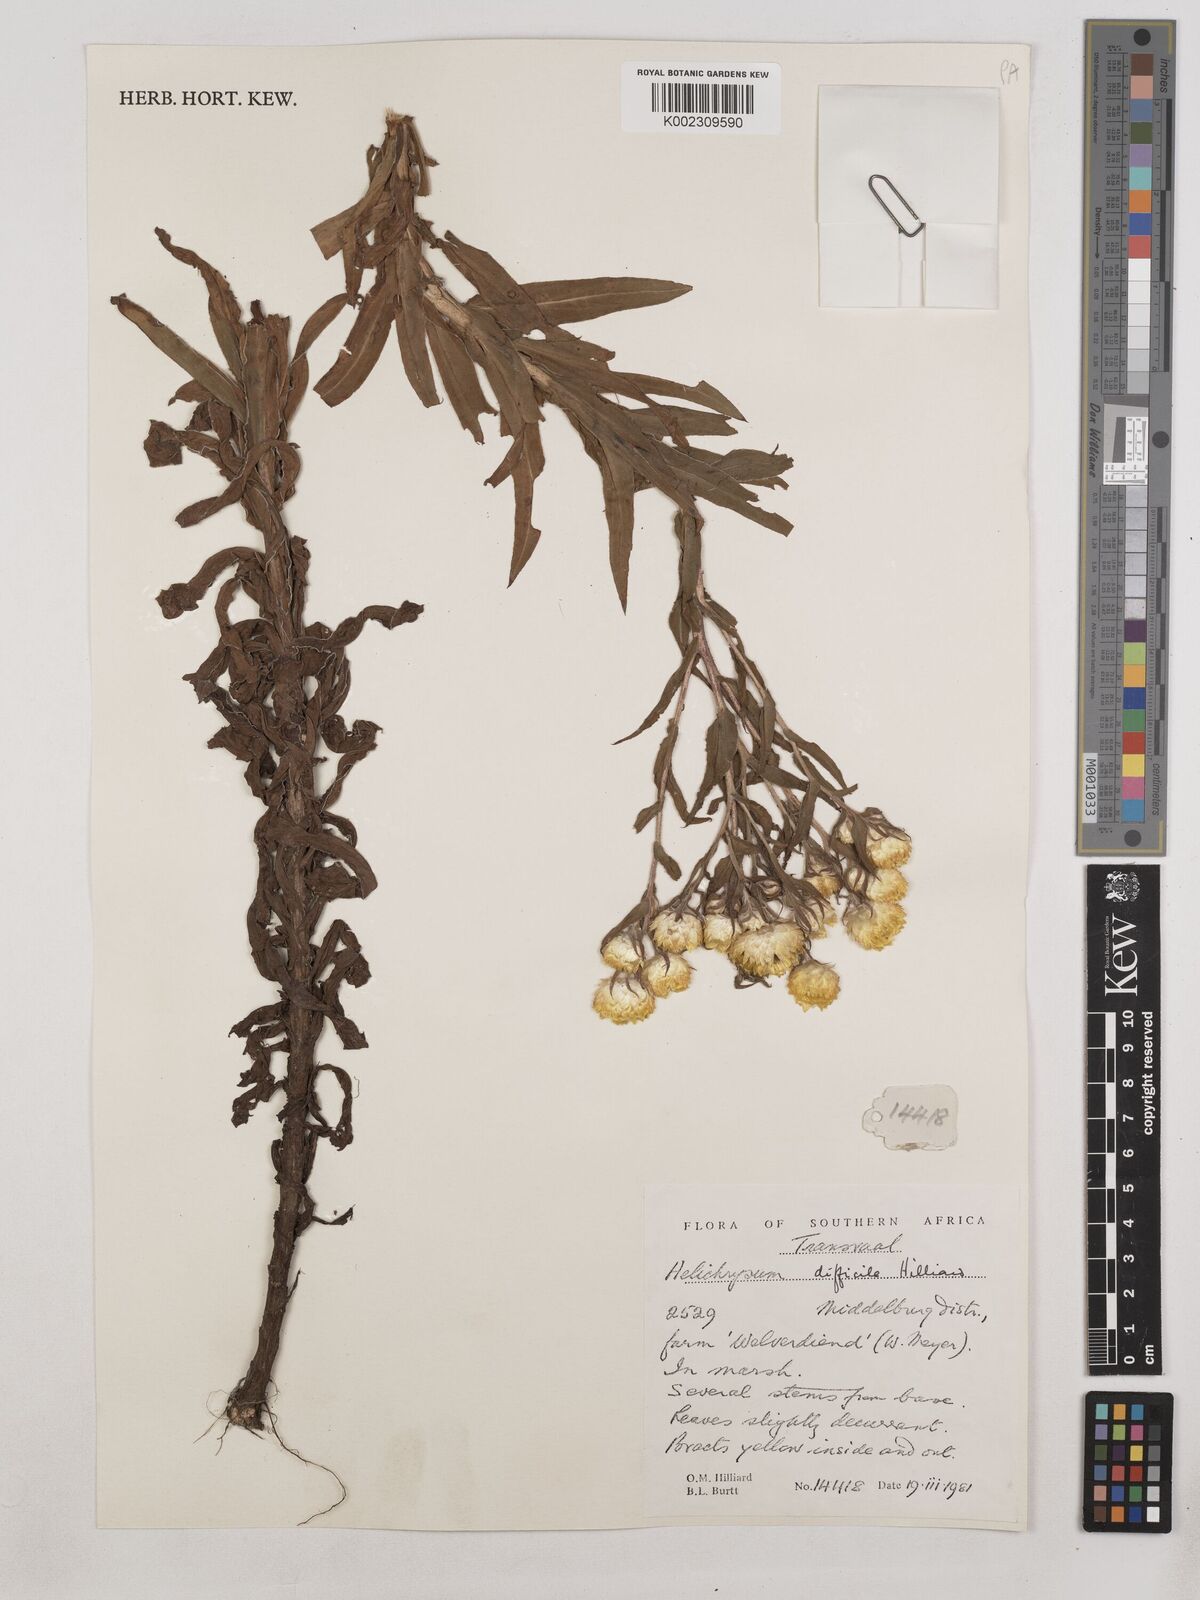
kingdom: Plantae
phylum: Tracheophyta
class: Magnoliopsida
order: Asterales
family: Asteraceae
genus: Helichrysum
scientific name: Helichrysum difficile
